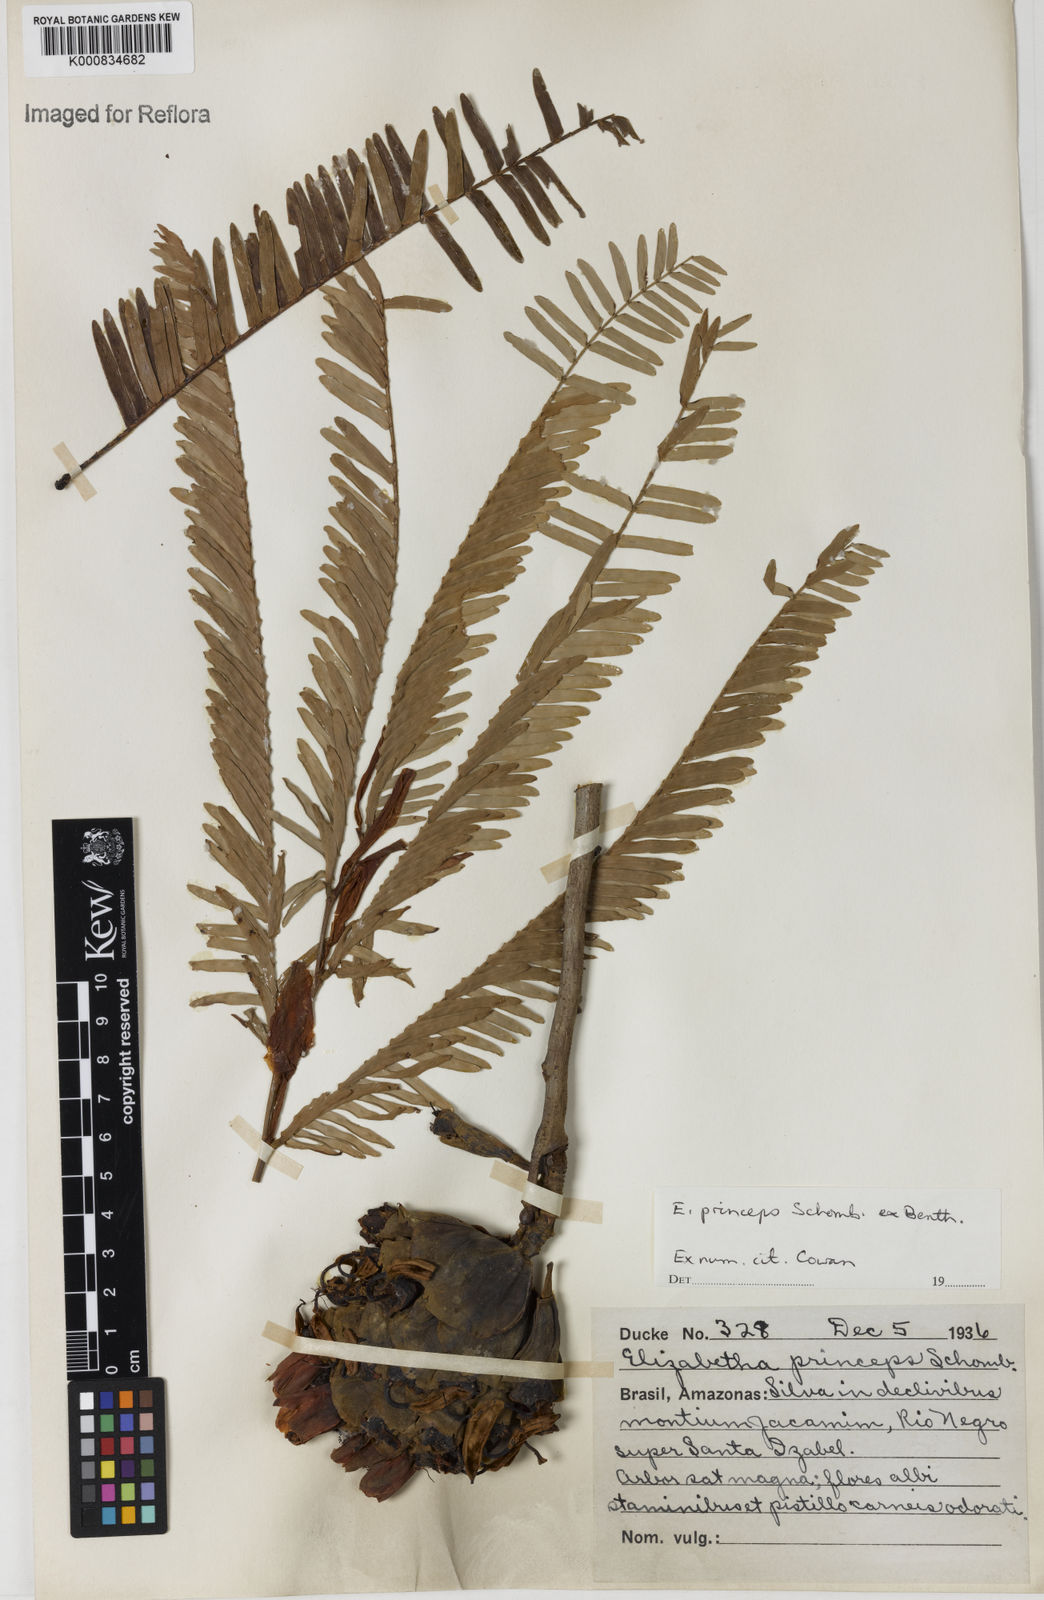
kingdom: Plantae
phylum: Tracheophyta
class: Magnoliopsida
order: Fabales
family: Fabaceae
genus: Paloue
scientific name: Paloue princeps
